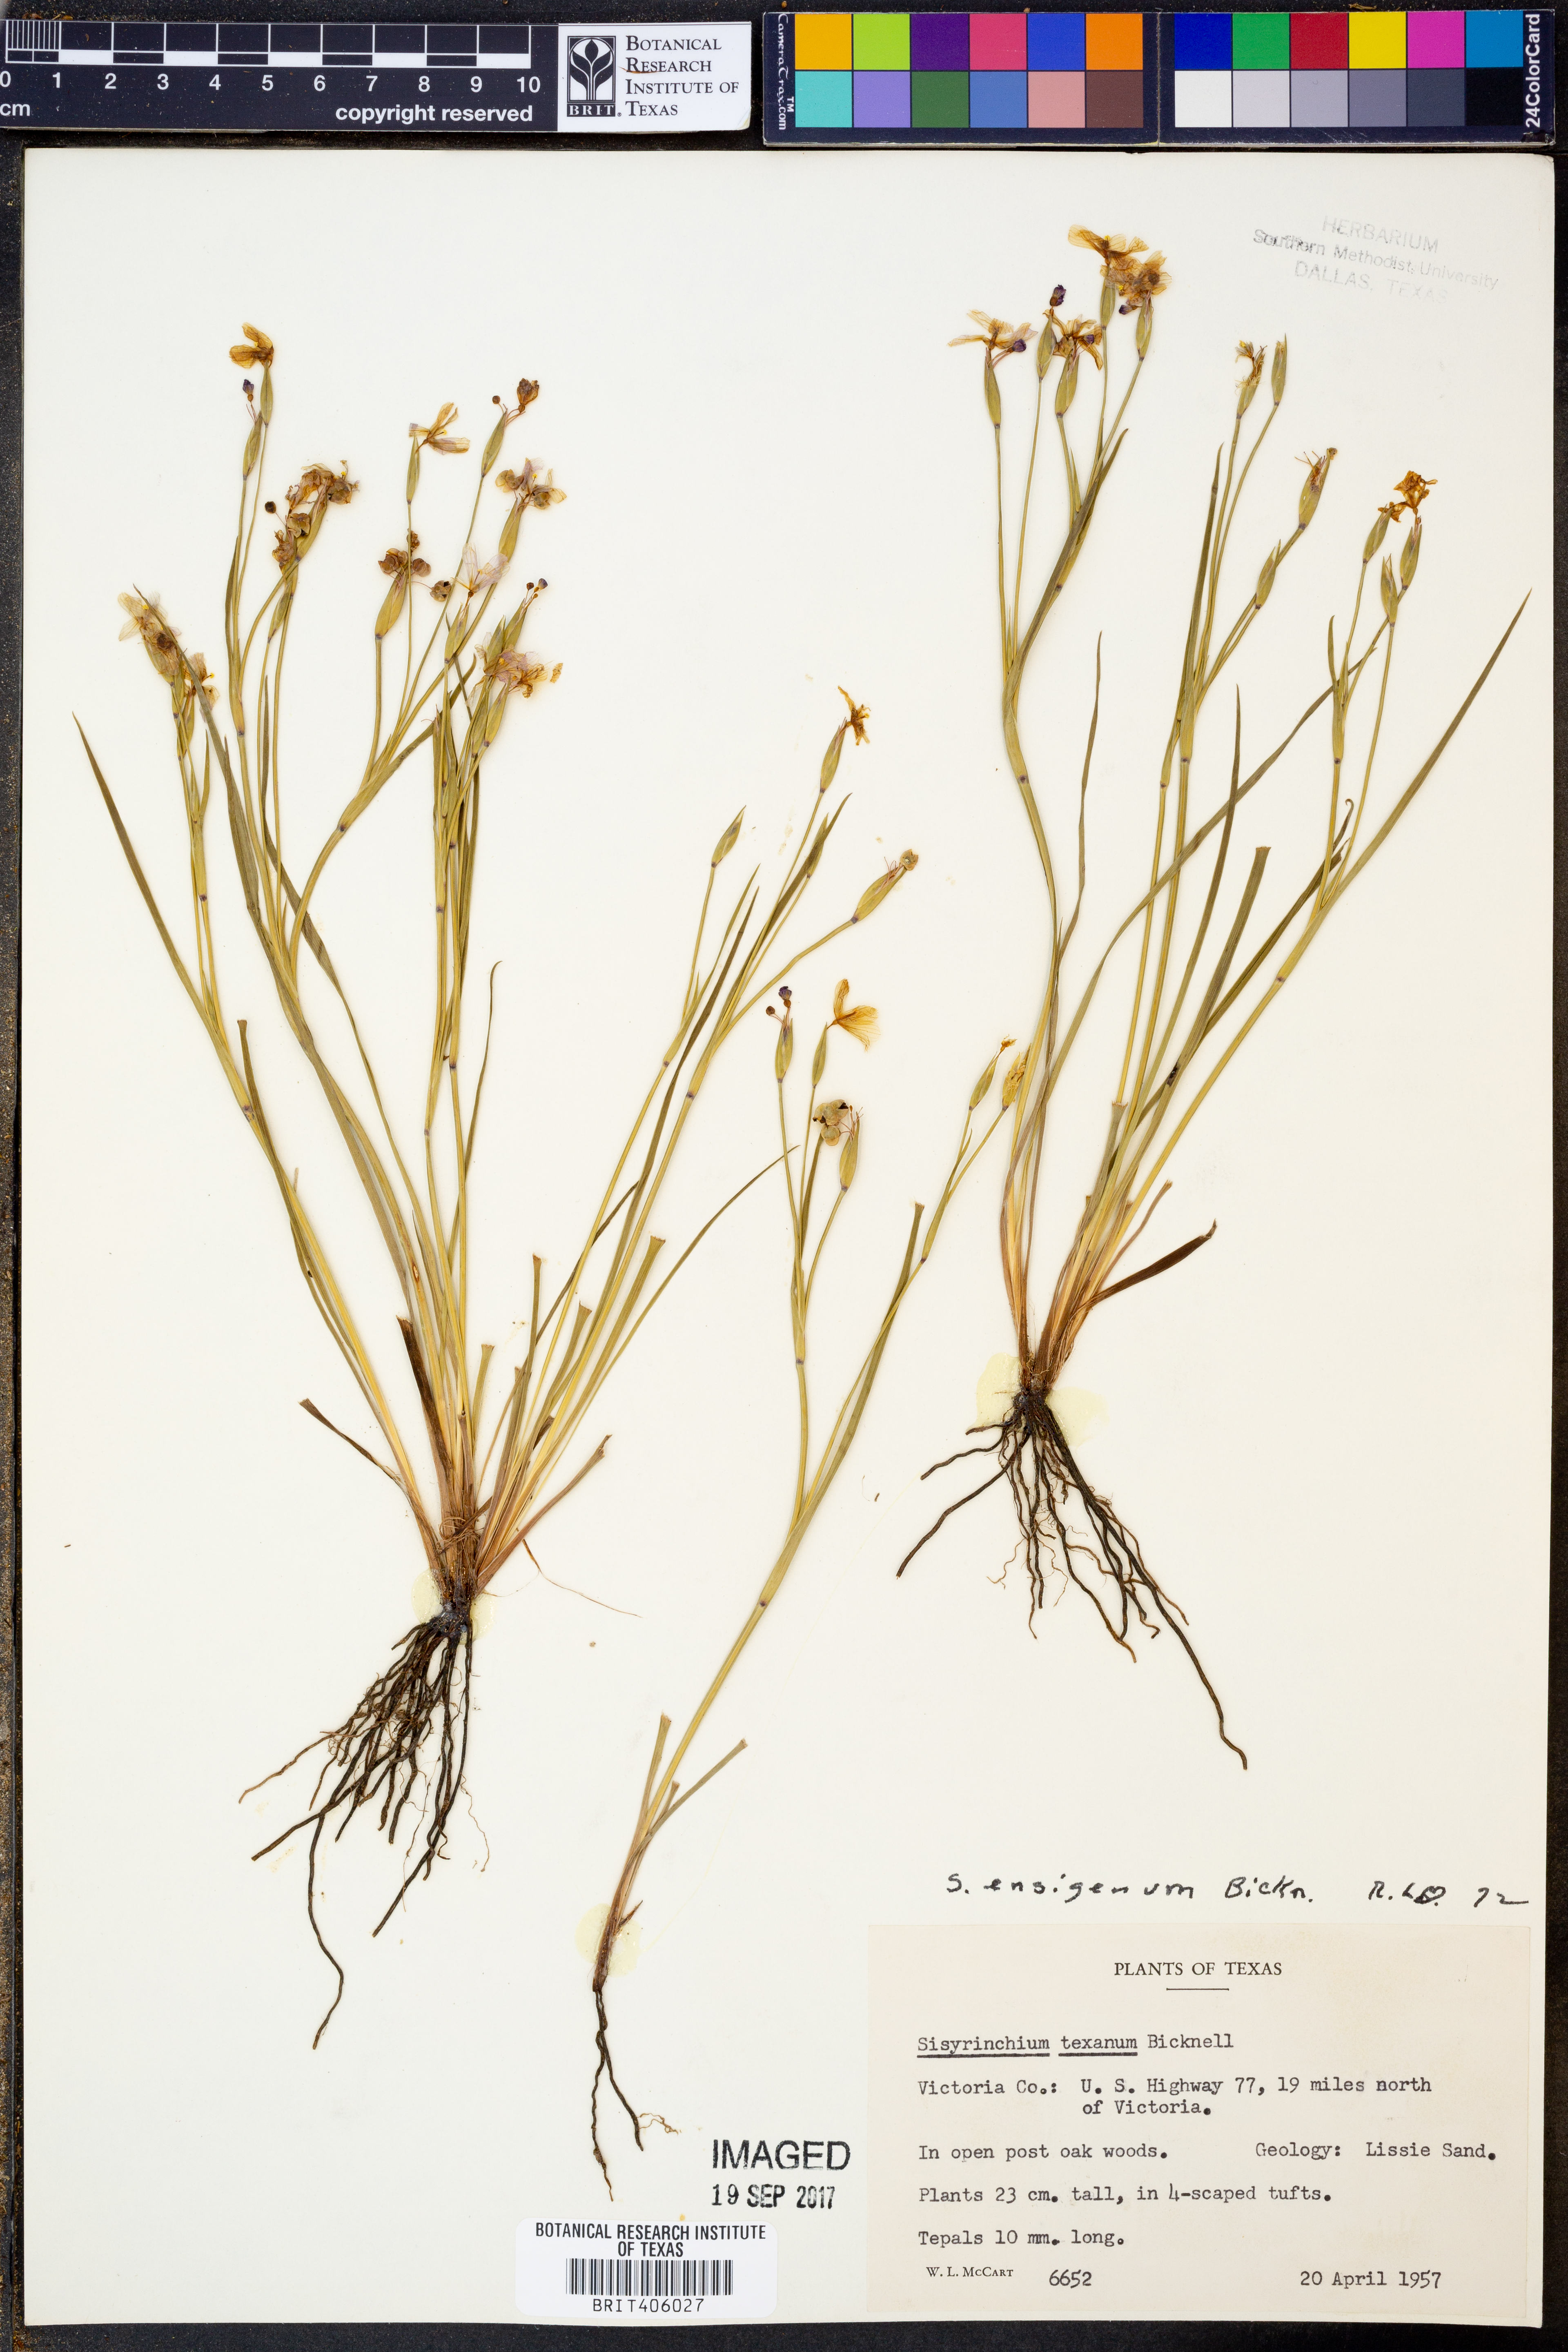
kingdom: Plantae
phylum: Tracheophyta
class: Liliopsida
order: Asparagales
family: Iridaceae
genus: Sisyrinchium
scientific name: Sisyrinchium ensigerum
